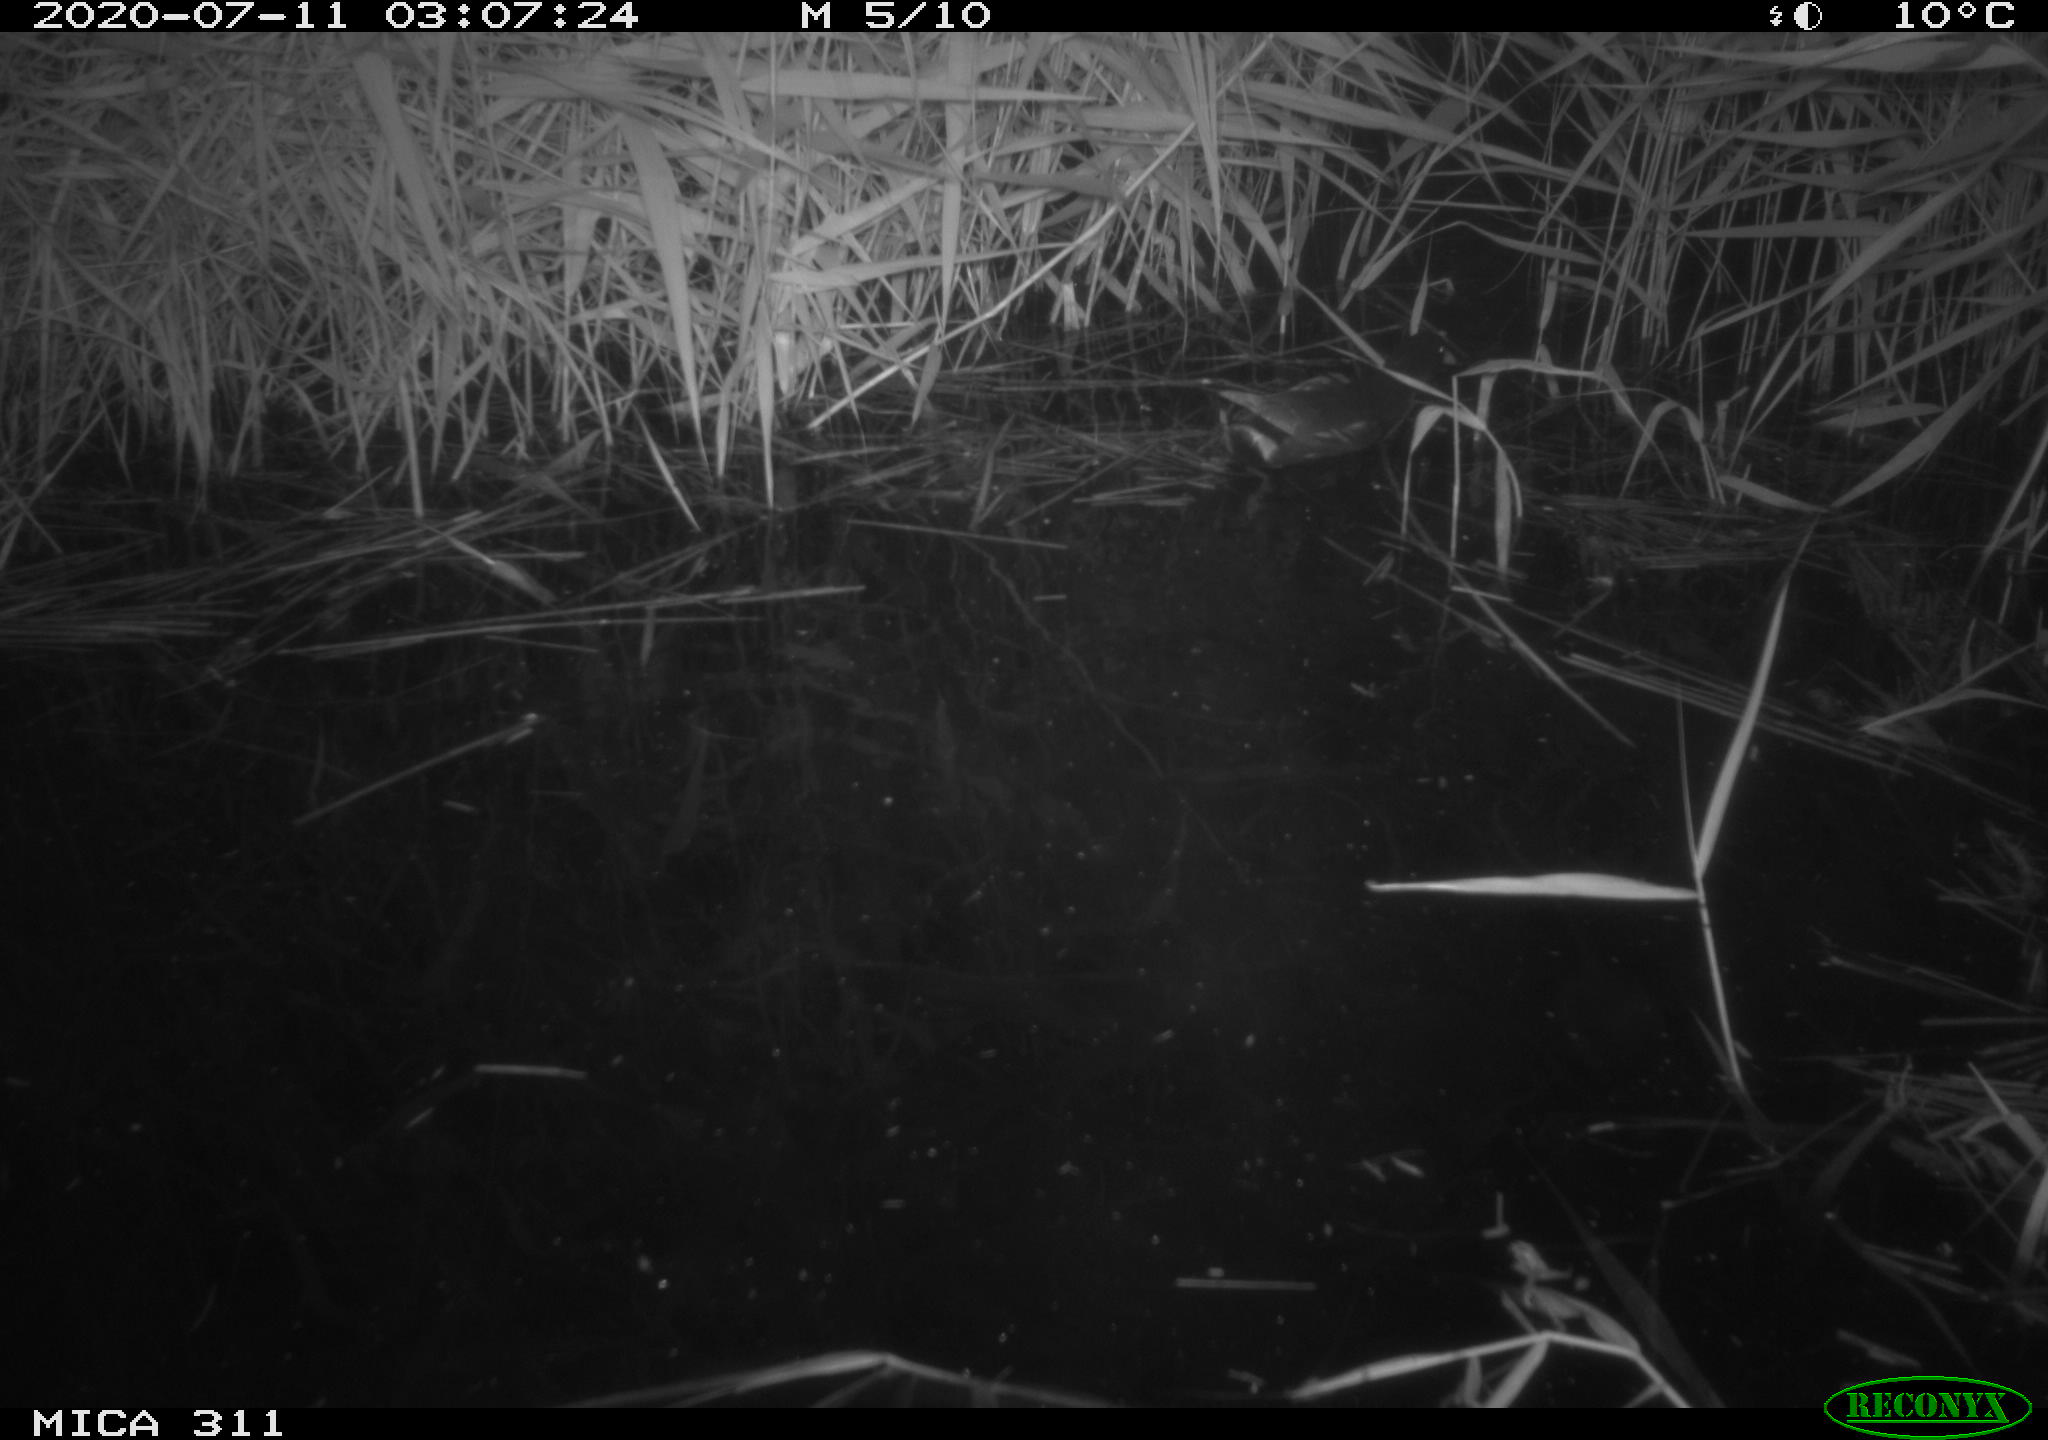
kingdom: Animalia
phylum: Chordata
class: Aves
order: Anseriformes
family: Anatidae
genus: Anas
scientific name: Anas platyrhynchos
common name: Mallard
